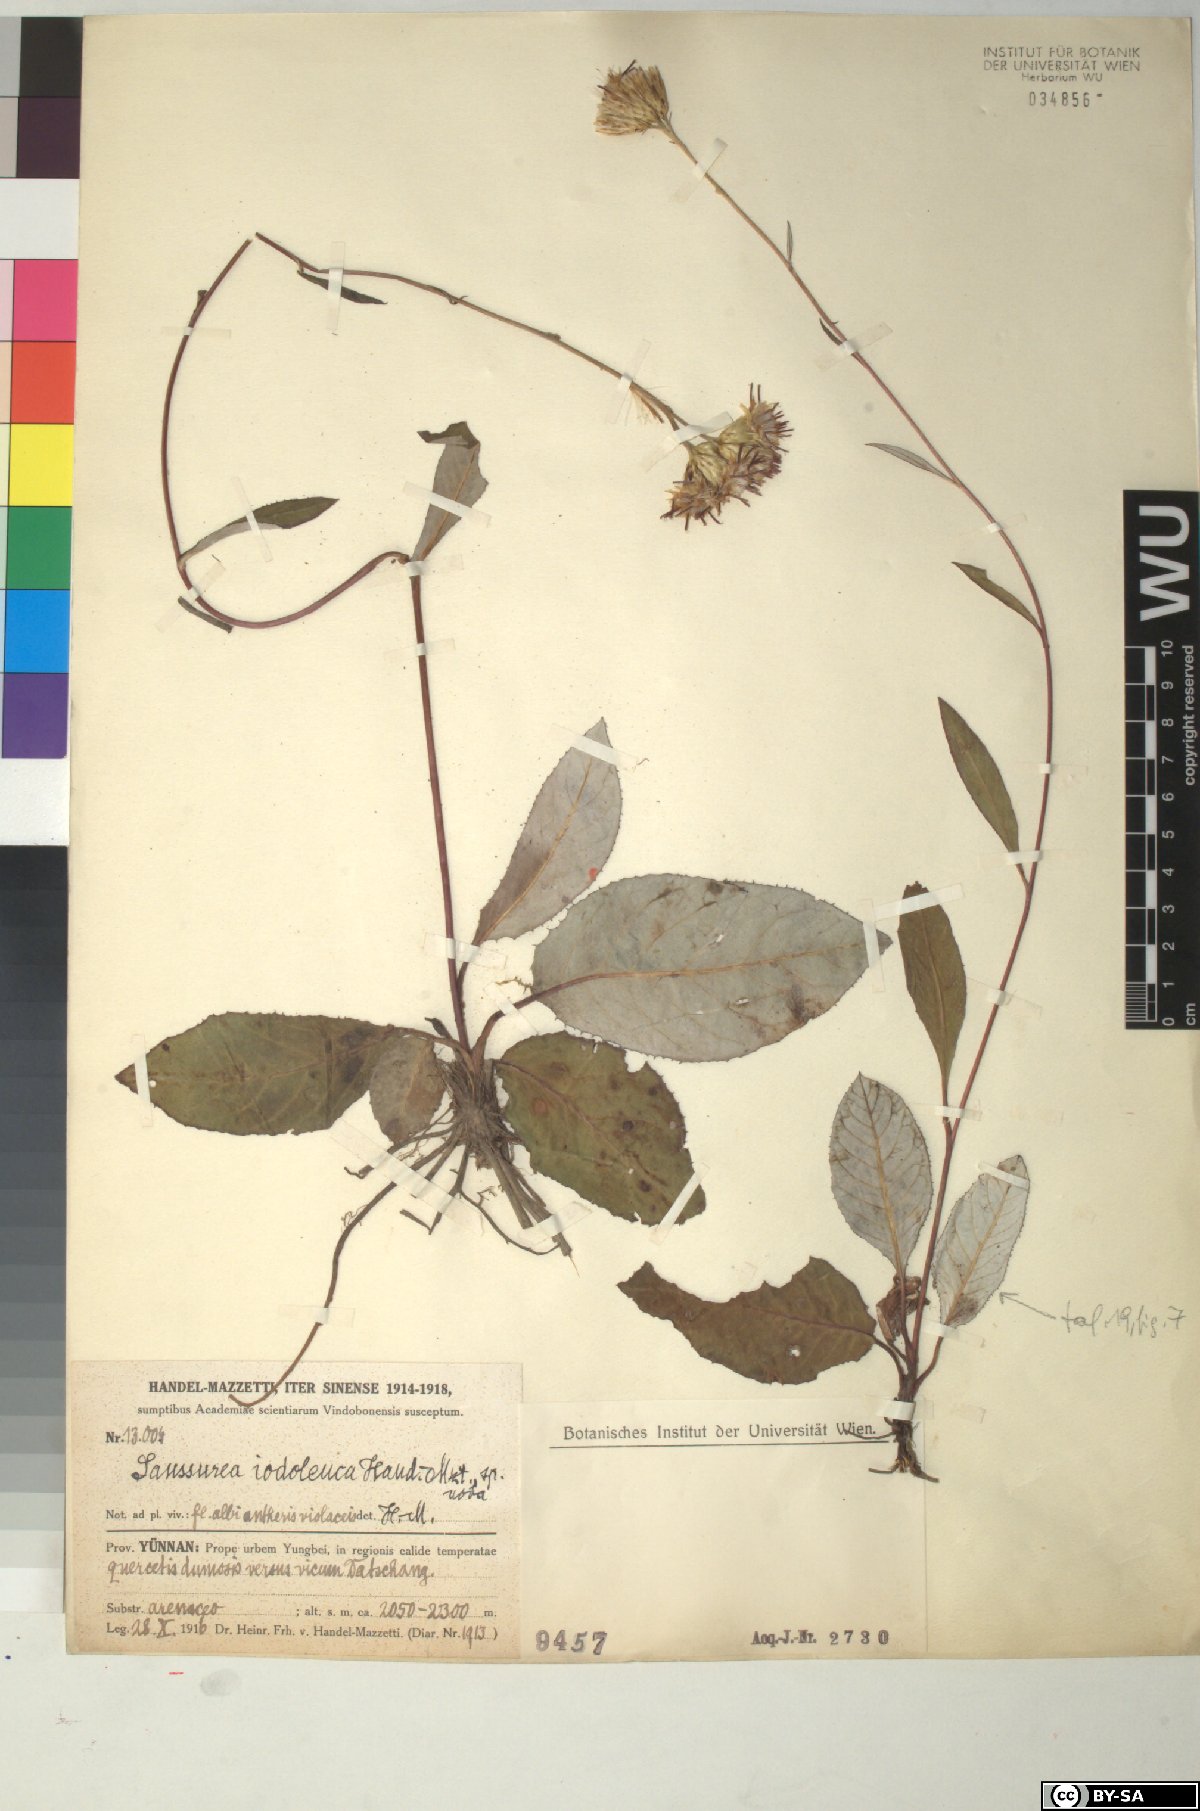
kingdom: Plantae
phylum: Tracheophyta
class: Magnoliopsida
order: Asterales
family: Asteraceae
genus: Saussurea
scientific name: Saussurea iodoleuca
